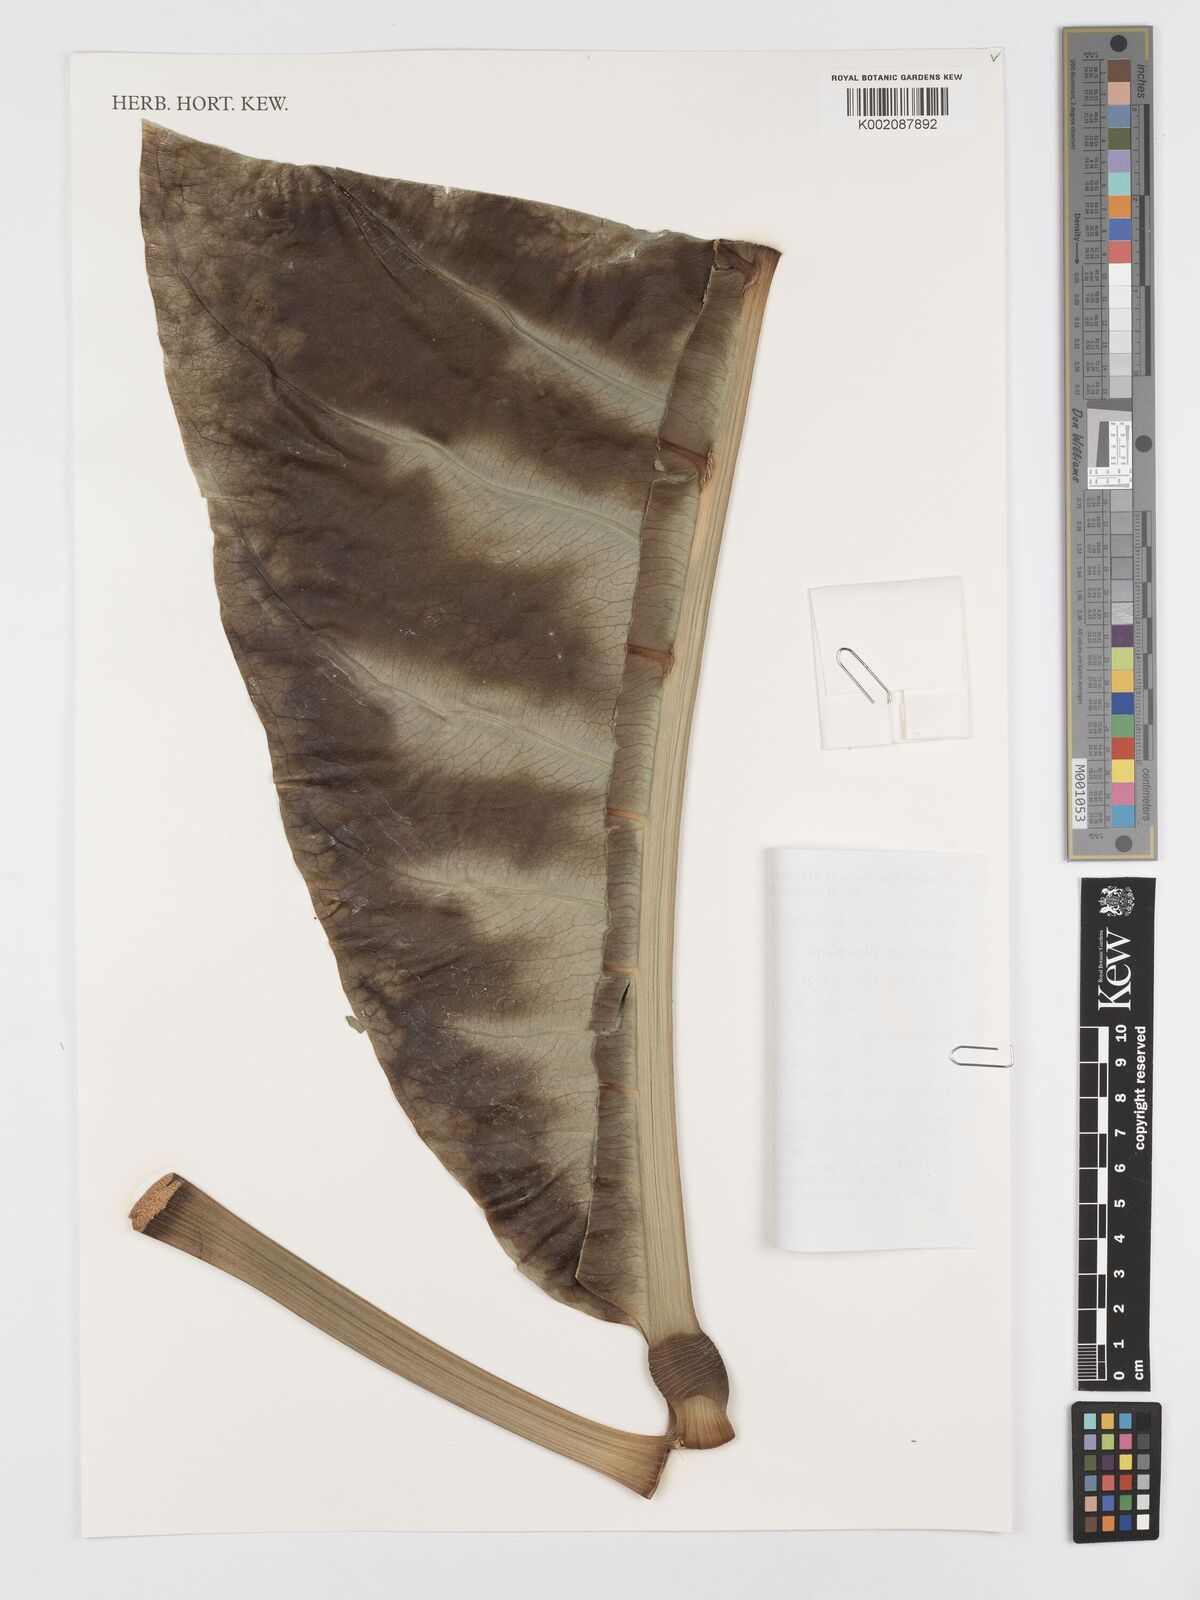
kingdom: Plantae
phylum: Tracheophyta
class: Liliopsida
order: Alismatales
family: Araceae
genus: Anthurium
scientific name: Anthurium plowmanii
